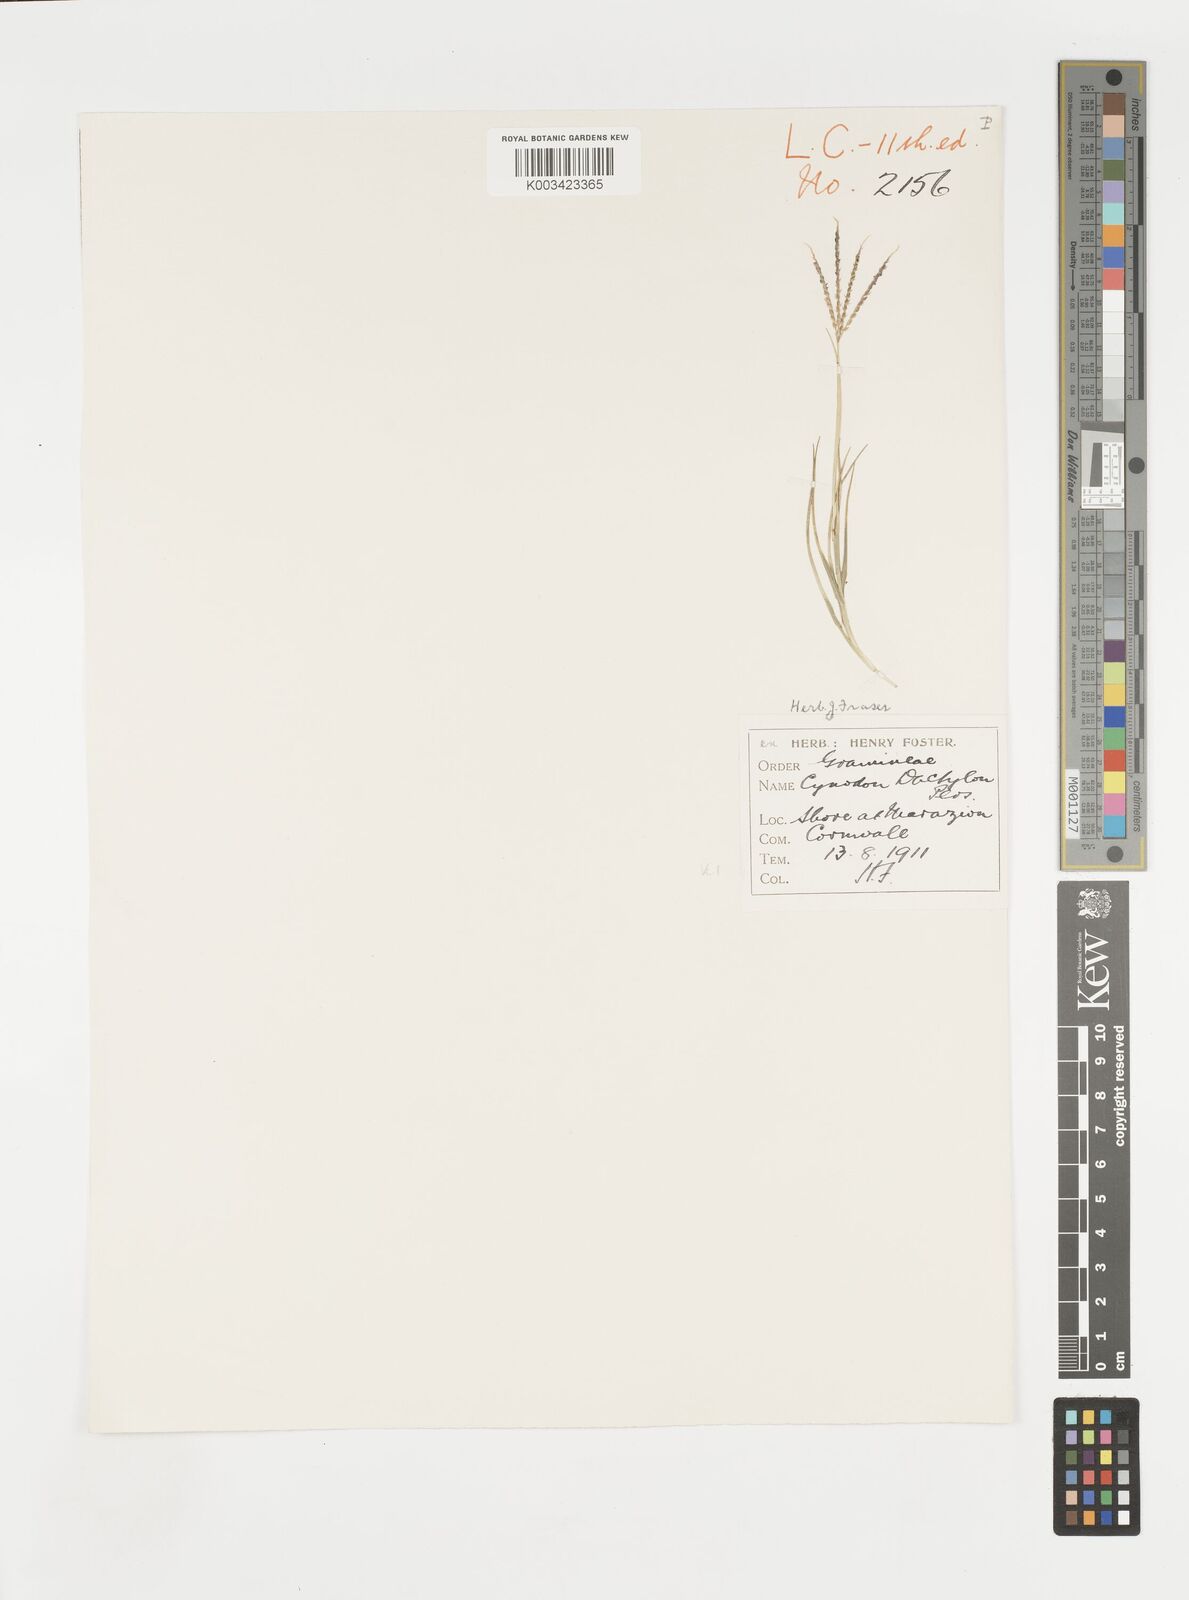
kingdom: Plantae
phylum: Tracheophyta
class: Liliopsida
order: Poales
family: Poaceae
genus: Cynodon
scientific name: Cynodon dactylon
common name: Bermuda grass
